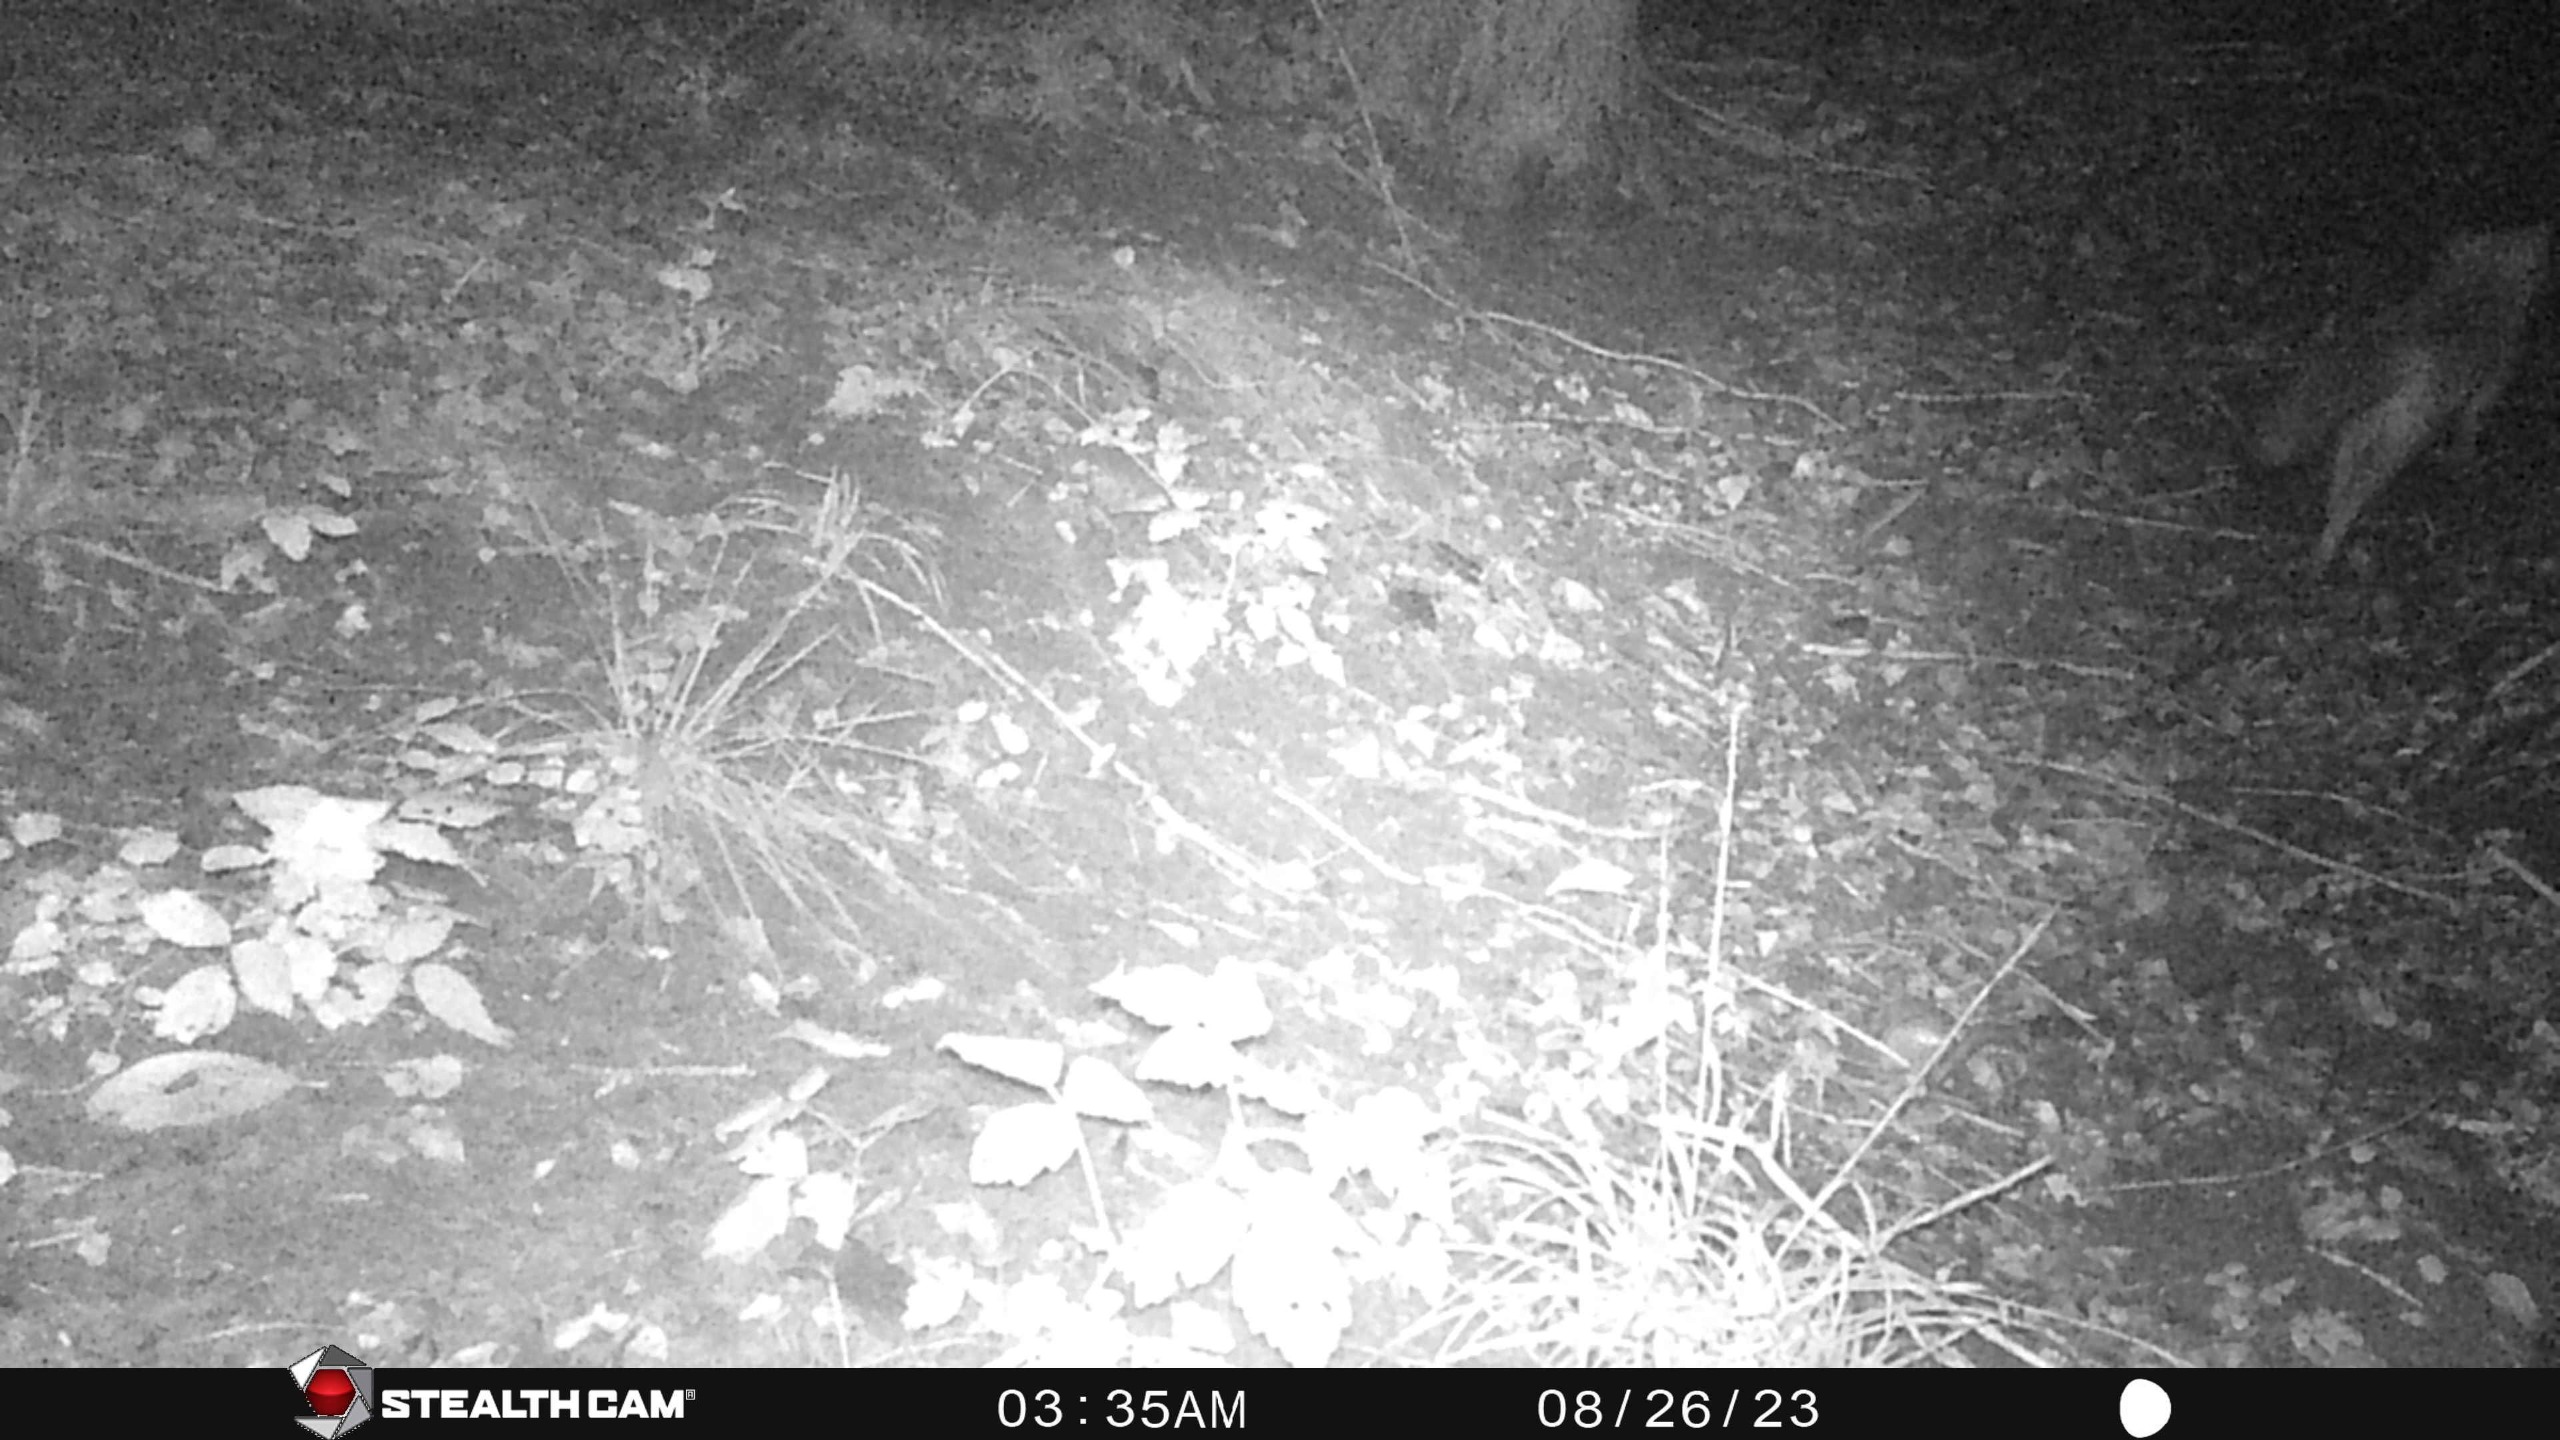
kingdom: Animalia
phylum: Chordata
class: Mammalia
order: Carnivora
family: Canidae
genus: Vulpes
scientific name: Vulpes vulpes
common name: Ræv
